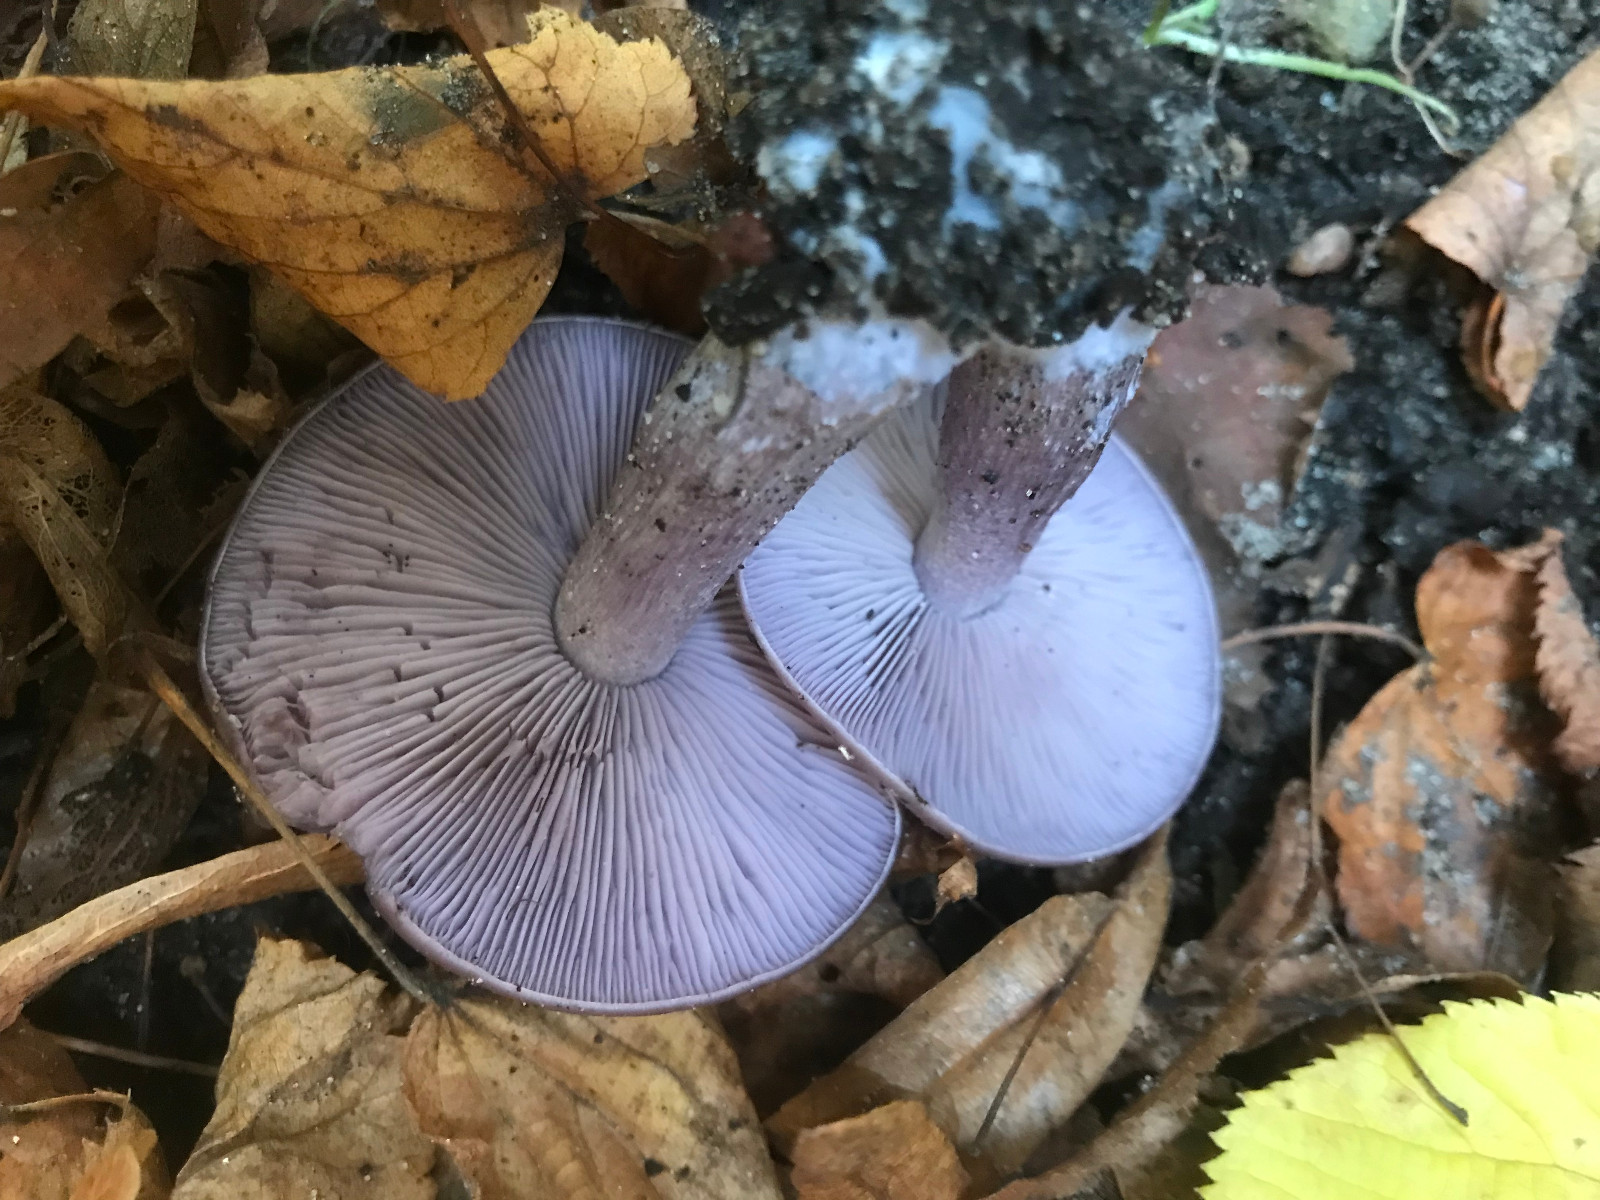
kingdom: Fungi
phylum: Basidiomycota
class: Agaricomycetes
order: Agaricales
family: Tricholomataceae
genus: Lepista
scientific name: Lepista nuda
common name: violet hekseringshat
